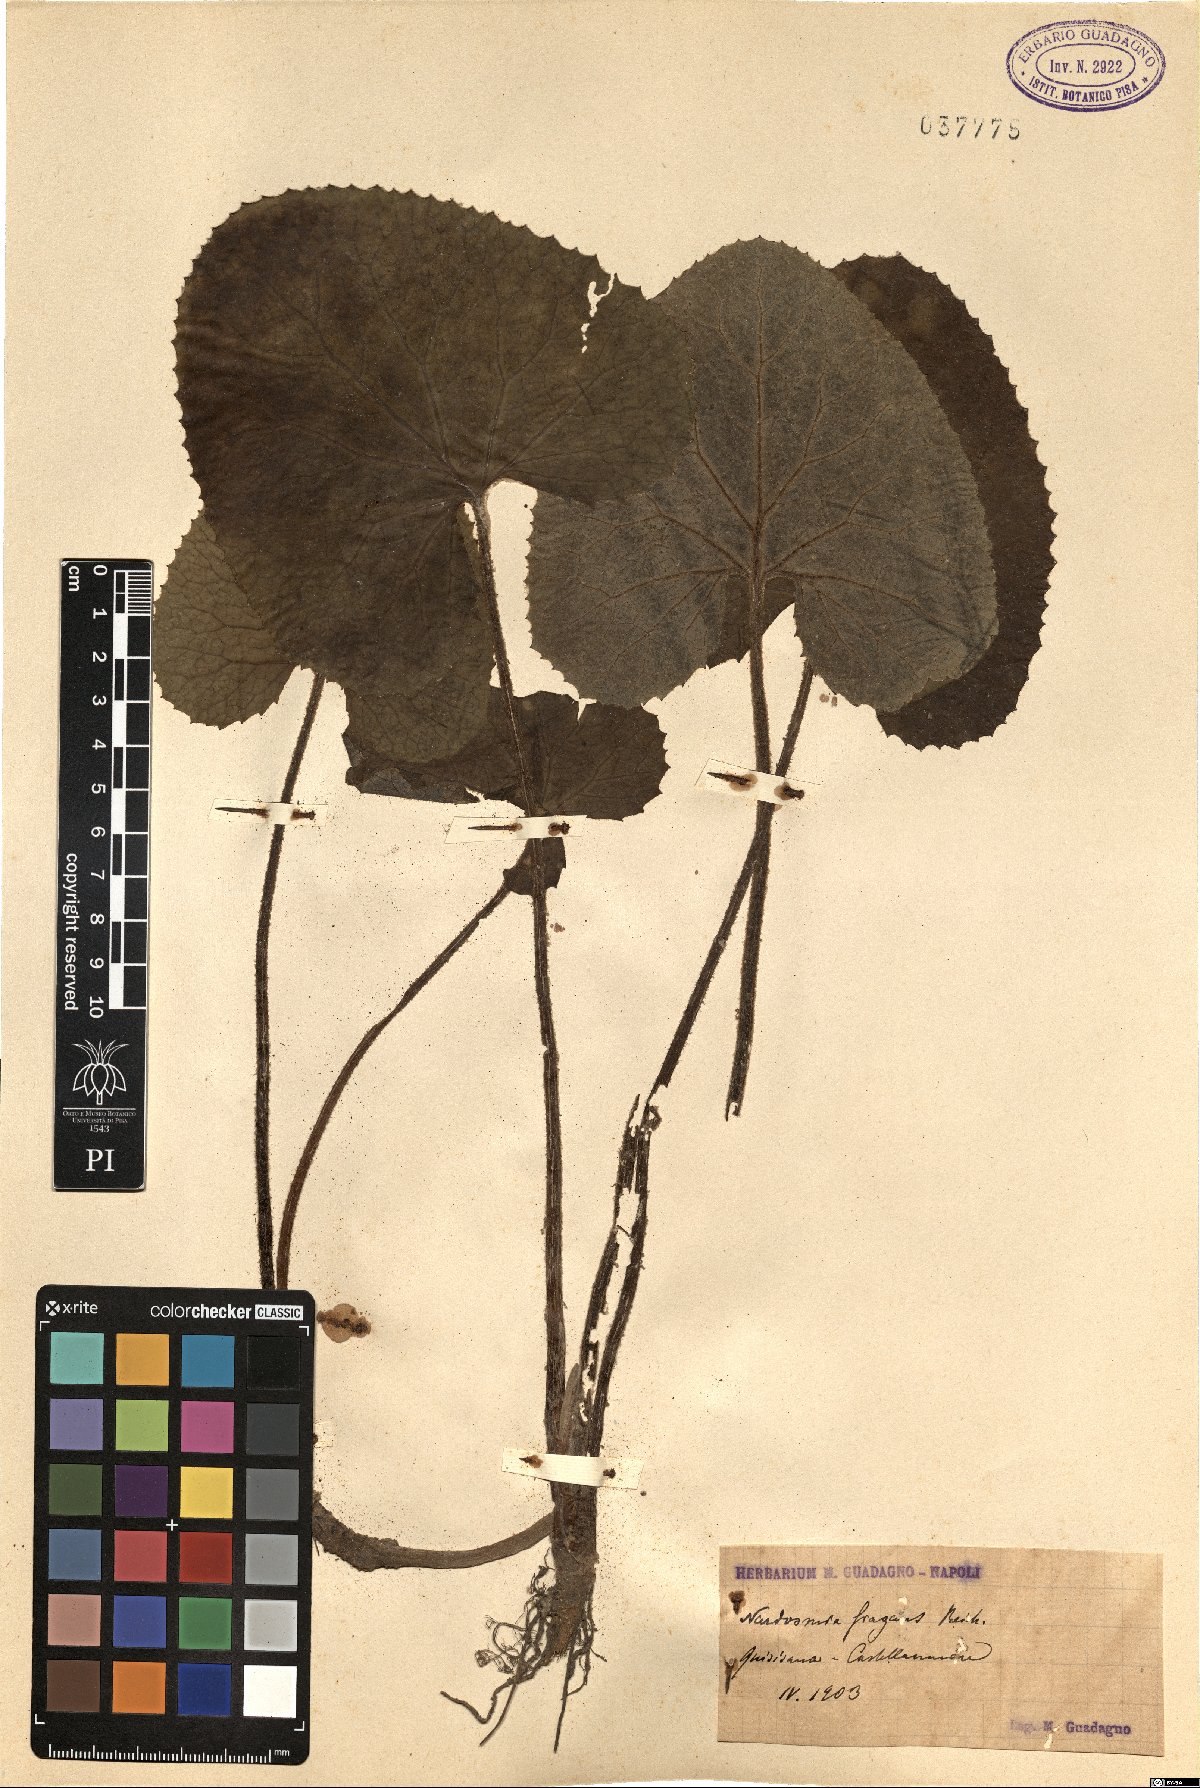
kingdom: Plantae
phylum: Tracheophyta
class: Magnoliopsida
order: Asterales
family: Asteraceae
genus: Petasites
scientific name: Petasites pyrenaicus
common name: Winter heliotrope
